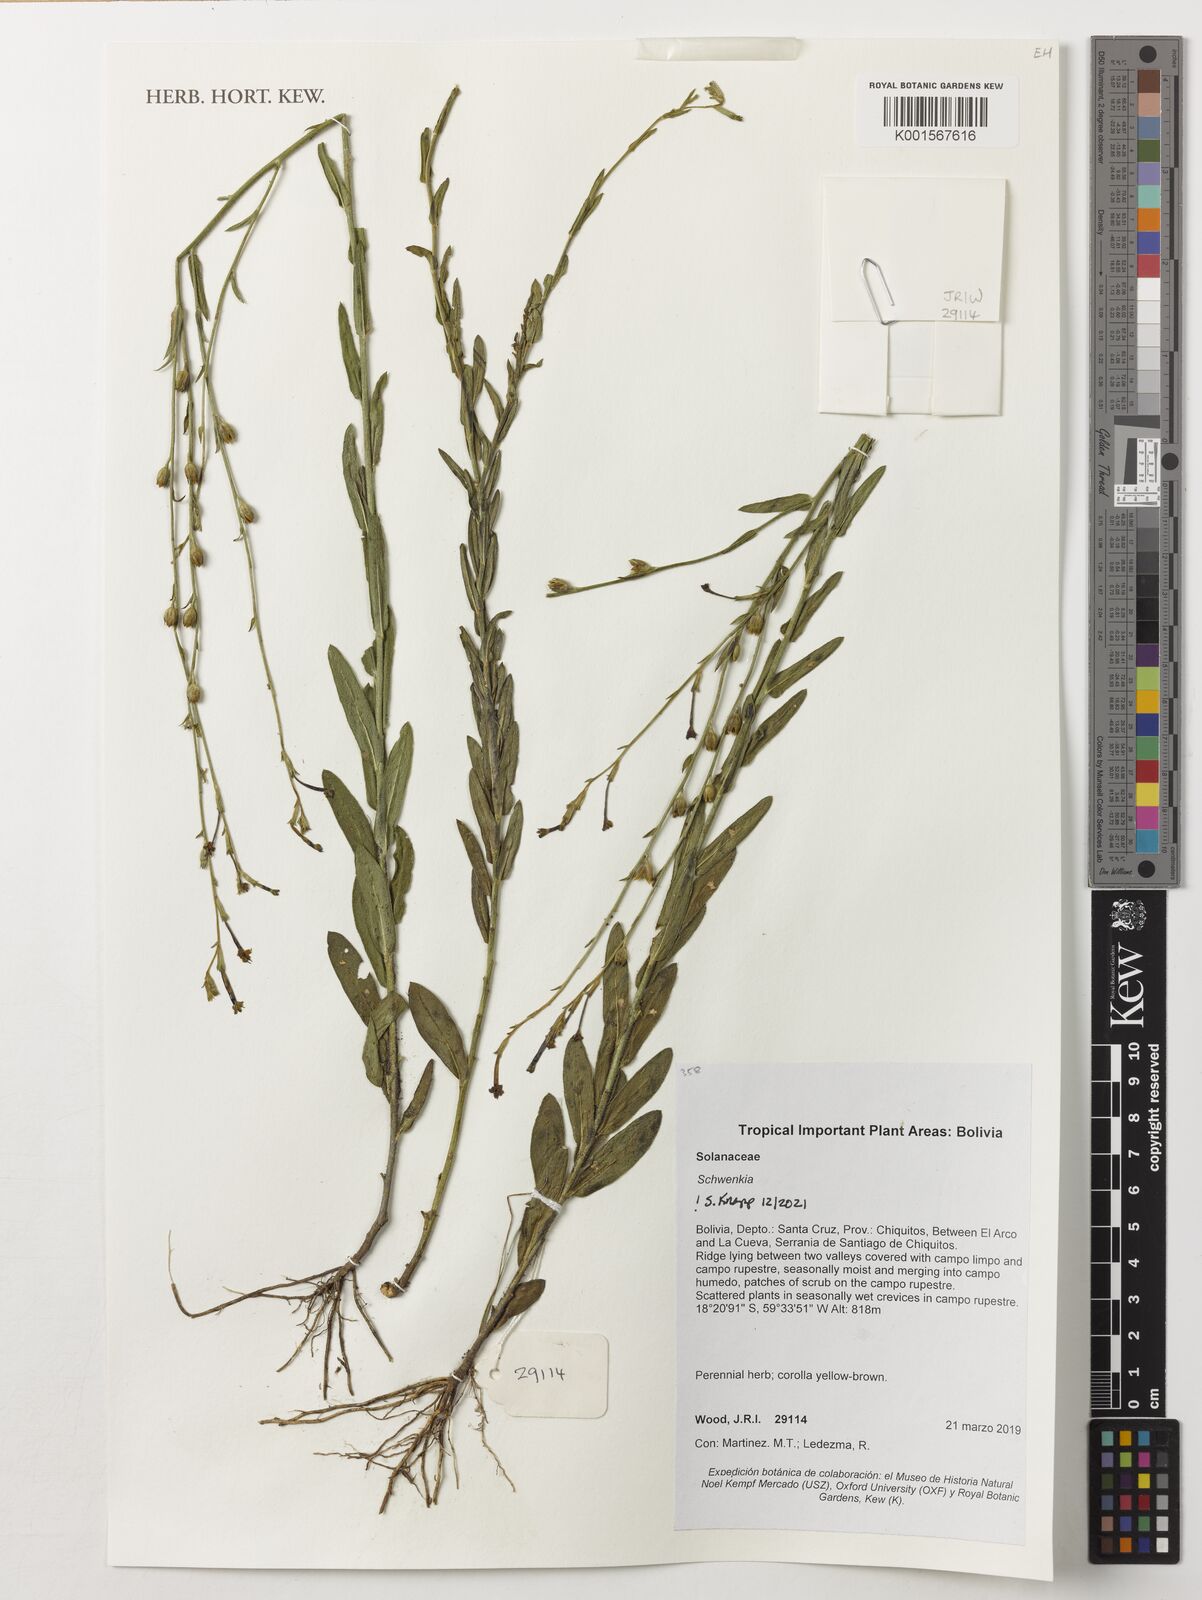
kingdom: Plantae
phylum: Tracheophyta
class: Magnoliopsida
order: Solanales
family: Solanaceae
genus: Schwenckia
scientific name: Schwenckia
